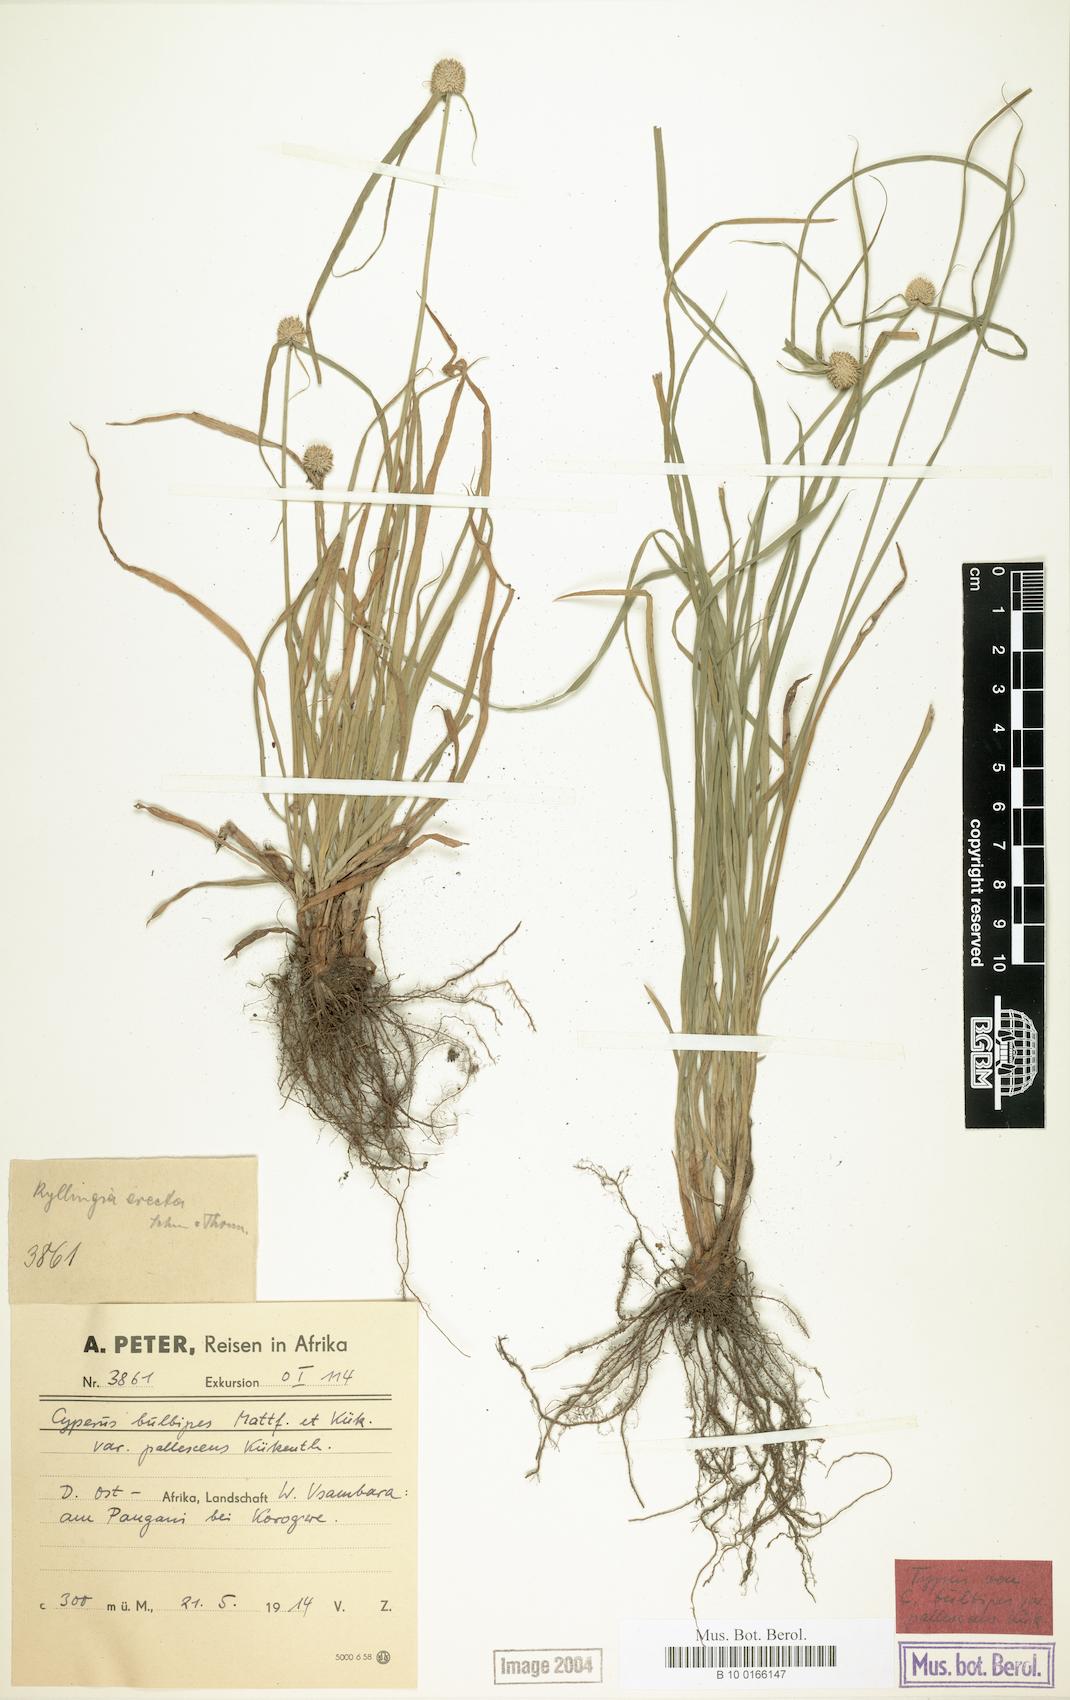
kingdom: Plantae
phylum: Tracheophyta
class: Liliopsida
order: Poales
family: Cyperaceae
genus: Cyperus
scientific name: Cyperus bulbipes
